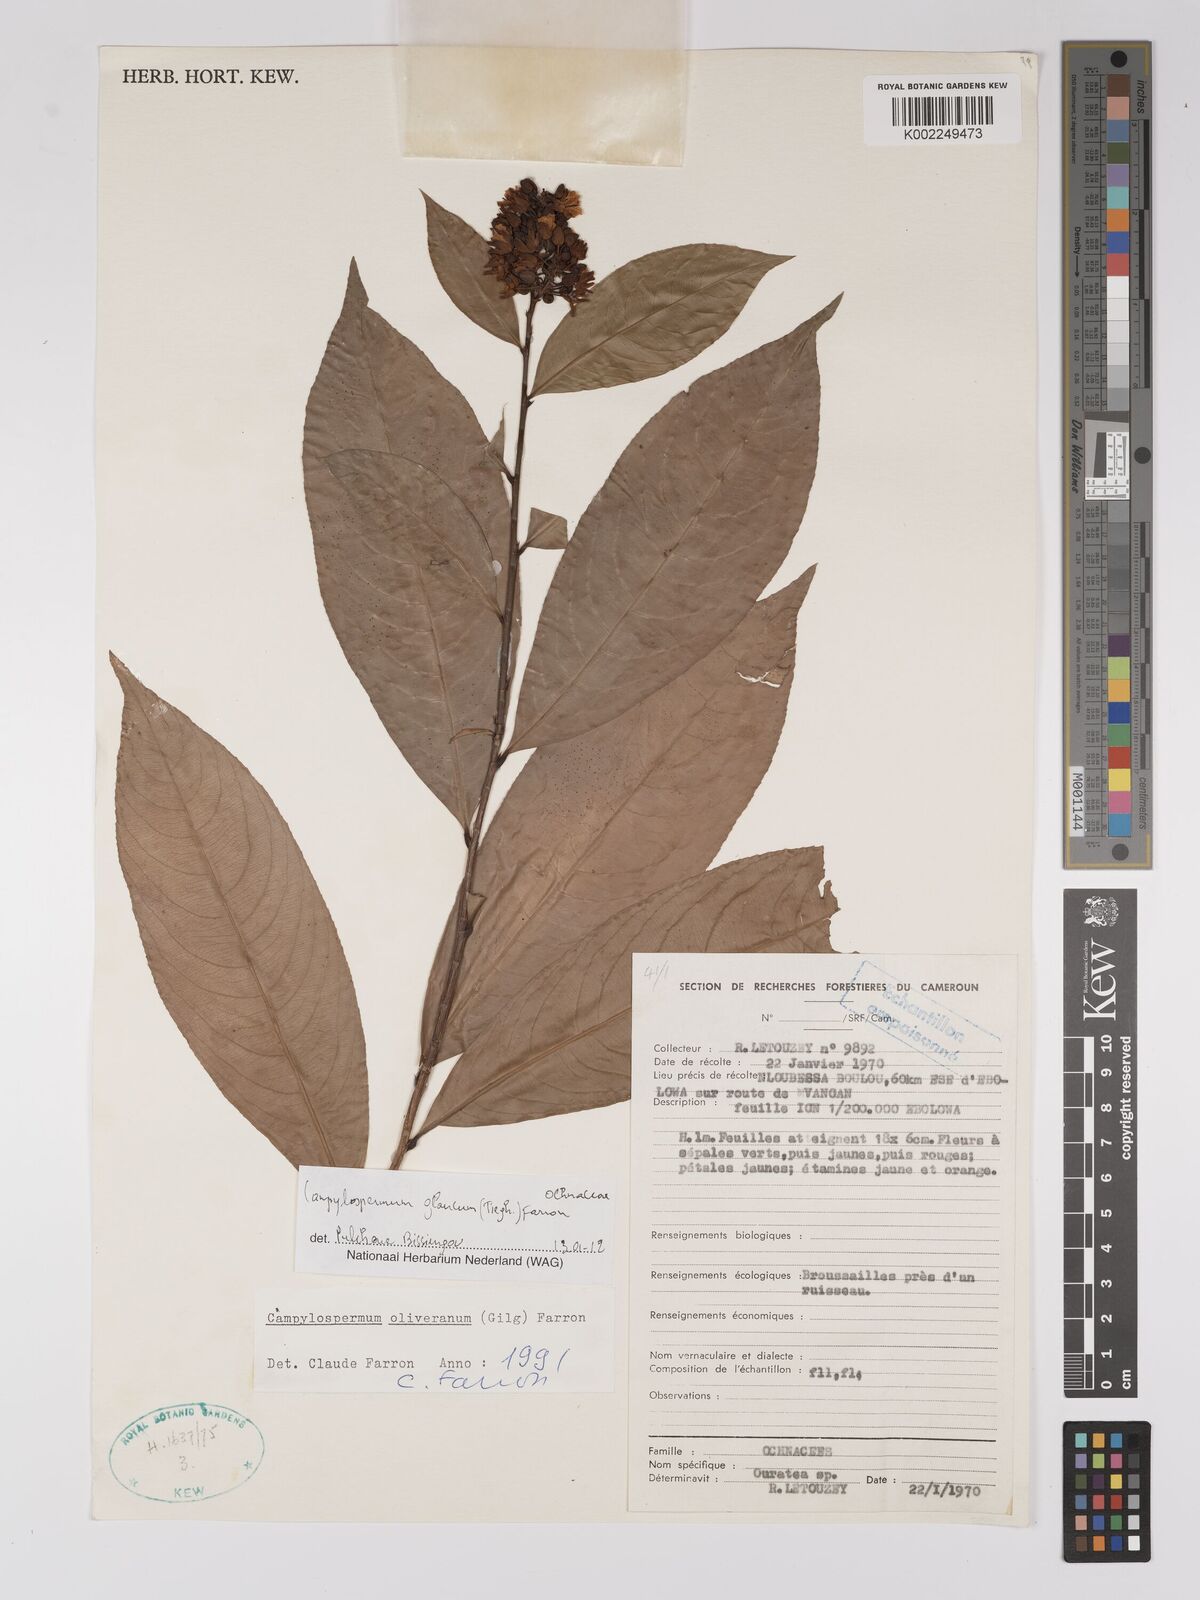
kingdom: Plantae
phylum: Tracheophyta
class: Magnoliopsida
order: Malpighiales
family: Ochnaceae
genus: Campylospermum
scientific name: Campylospermum glaucum
